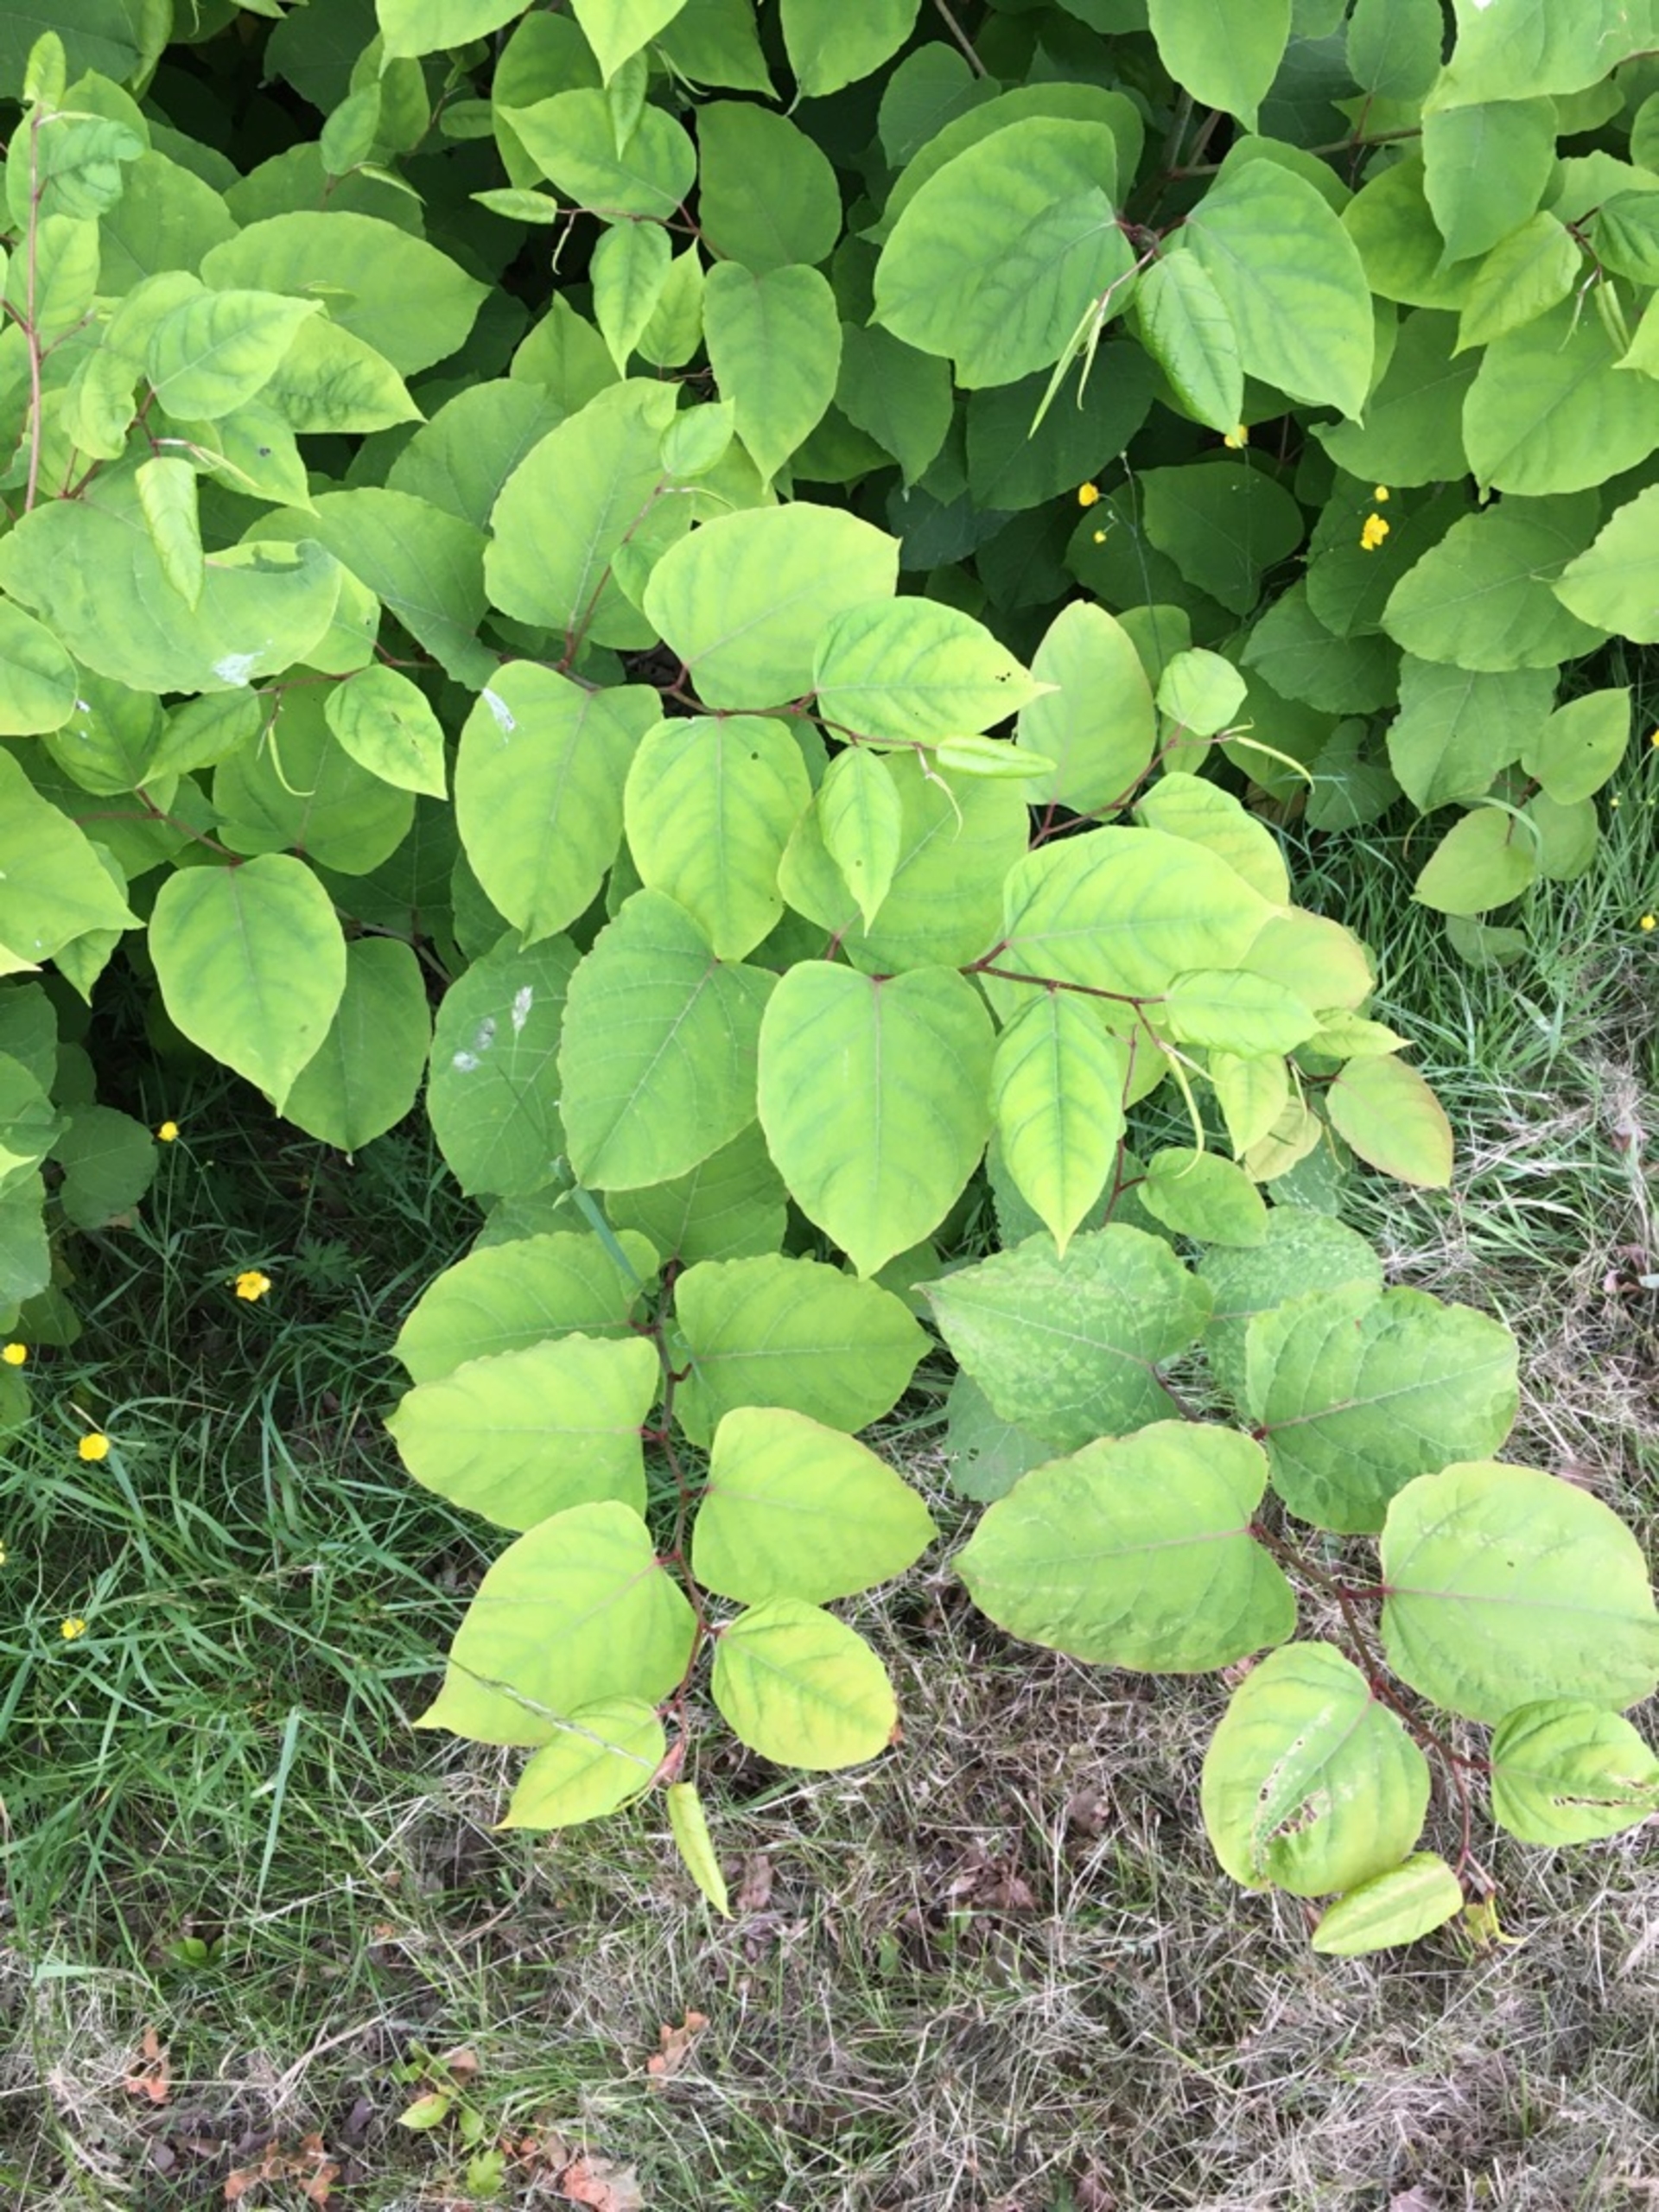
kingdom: Plantae
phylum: Tracheophyta
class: Magnoliopsida
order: Caryophyllales
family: Polygonaceae
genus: Reynoutria
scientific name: Reynoutria japonica
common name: Japan-pileurt
